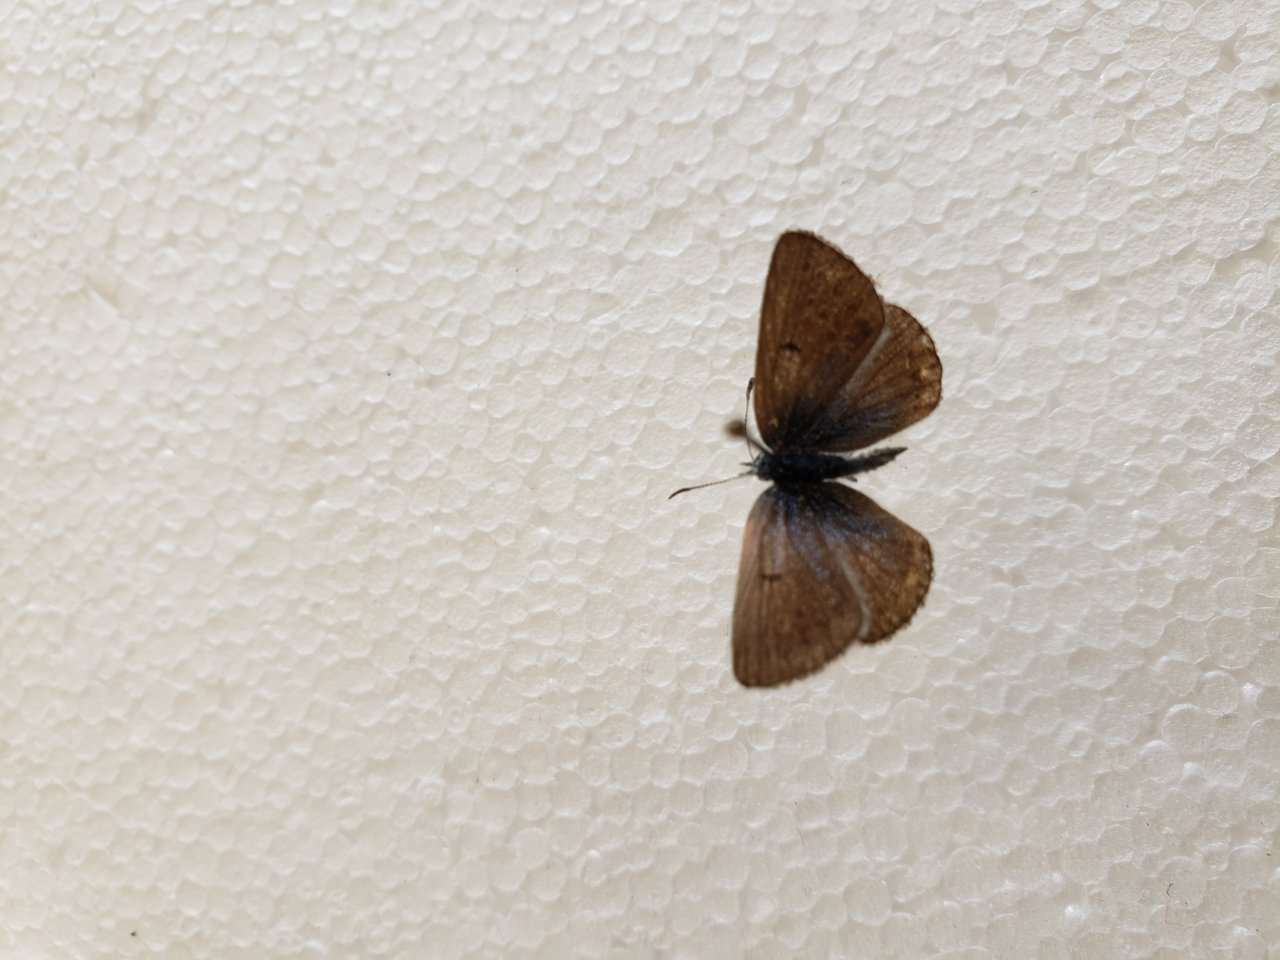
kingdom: Animalia
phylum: Arthropoda
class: Insecta
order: Lepidoptera
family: Lycaenidae
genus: Plebejus
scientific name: Plebejus saepiolus
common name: Greenish Blue
